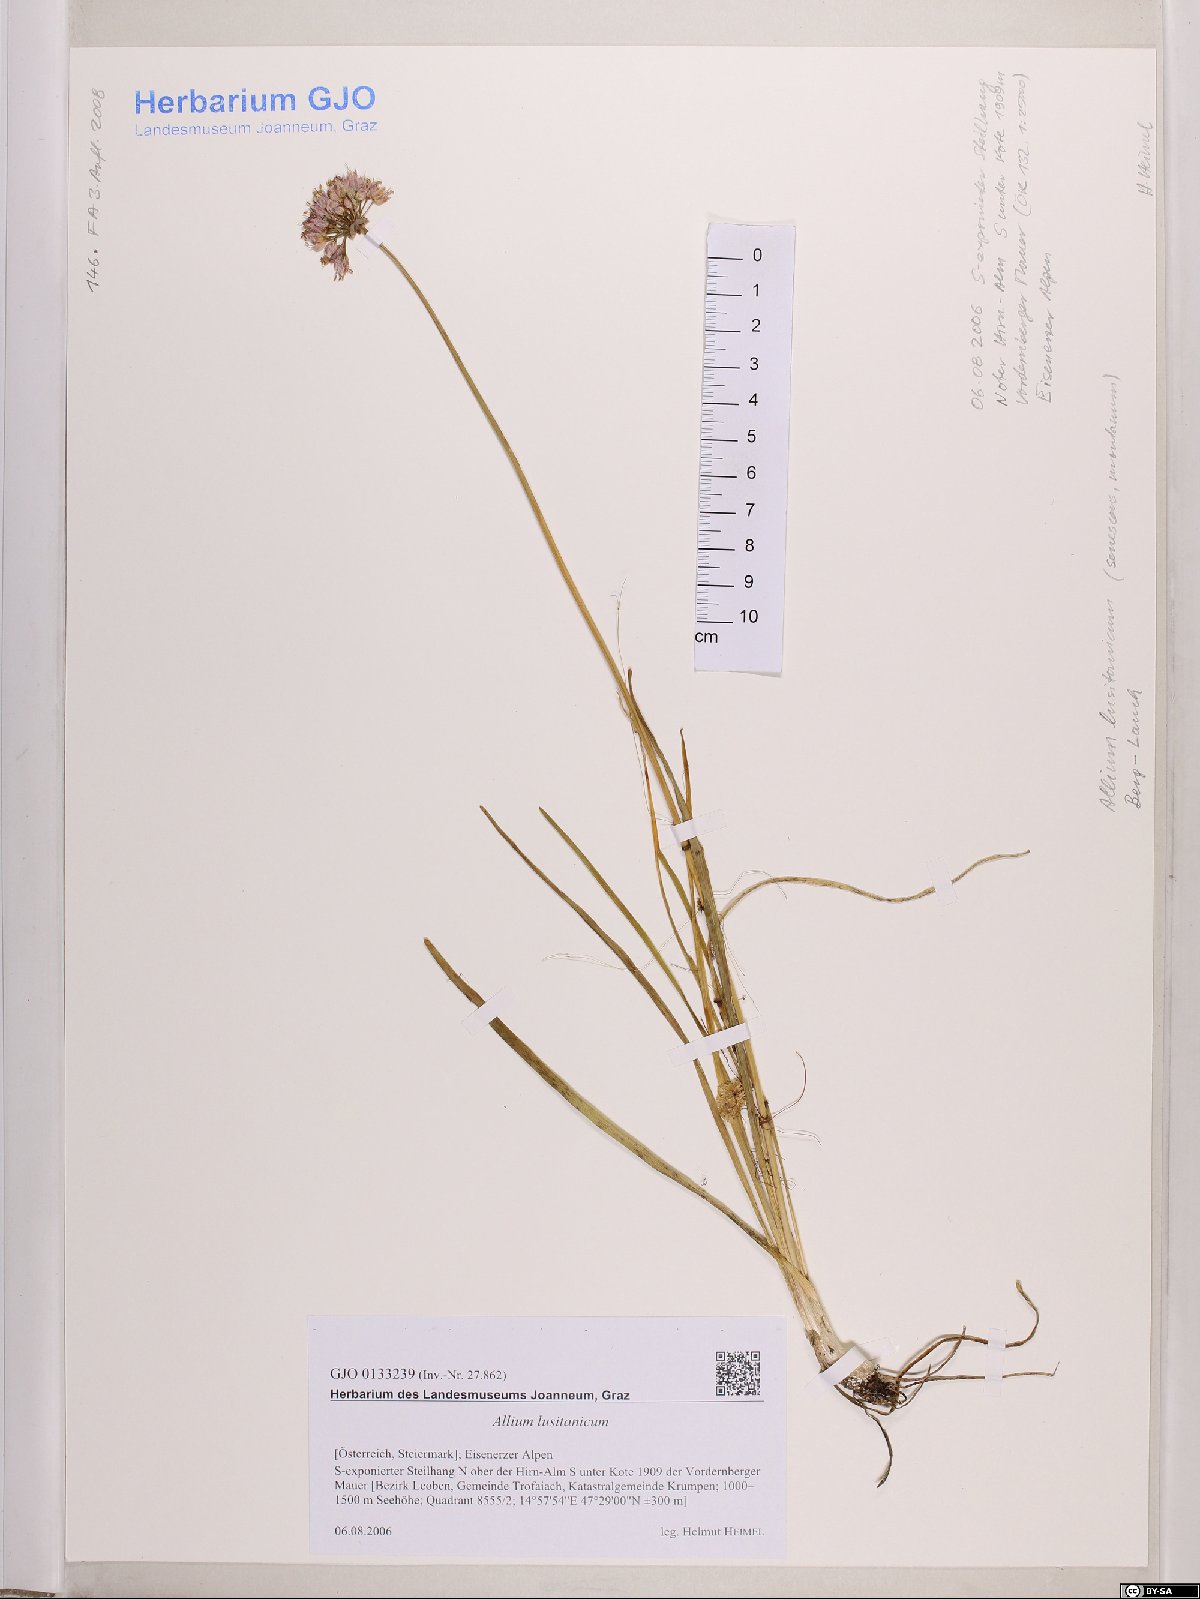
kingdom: Plantae
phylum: Tracheophyta
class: Liliopsida
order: Asparagales
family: Amaryllidaceae
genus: Allium
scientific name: Allium lusitanicum
